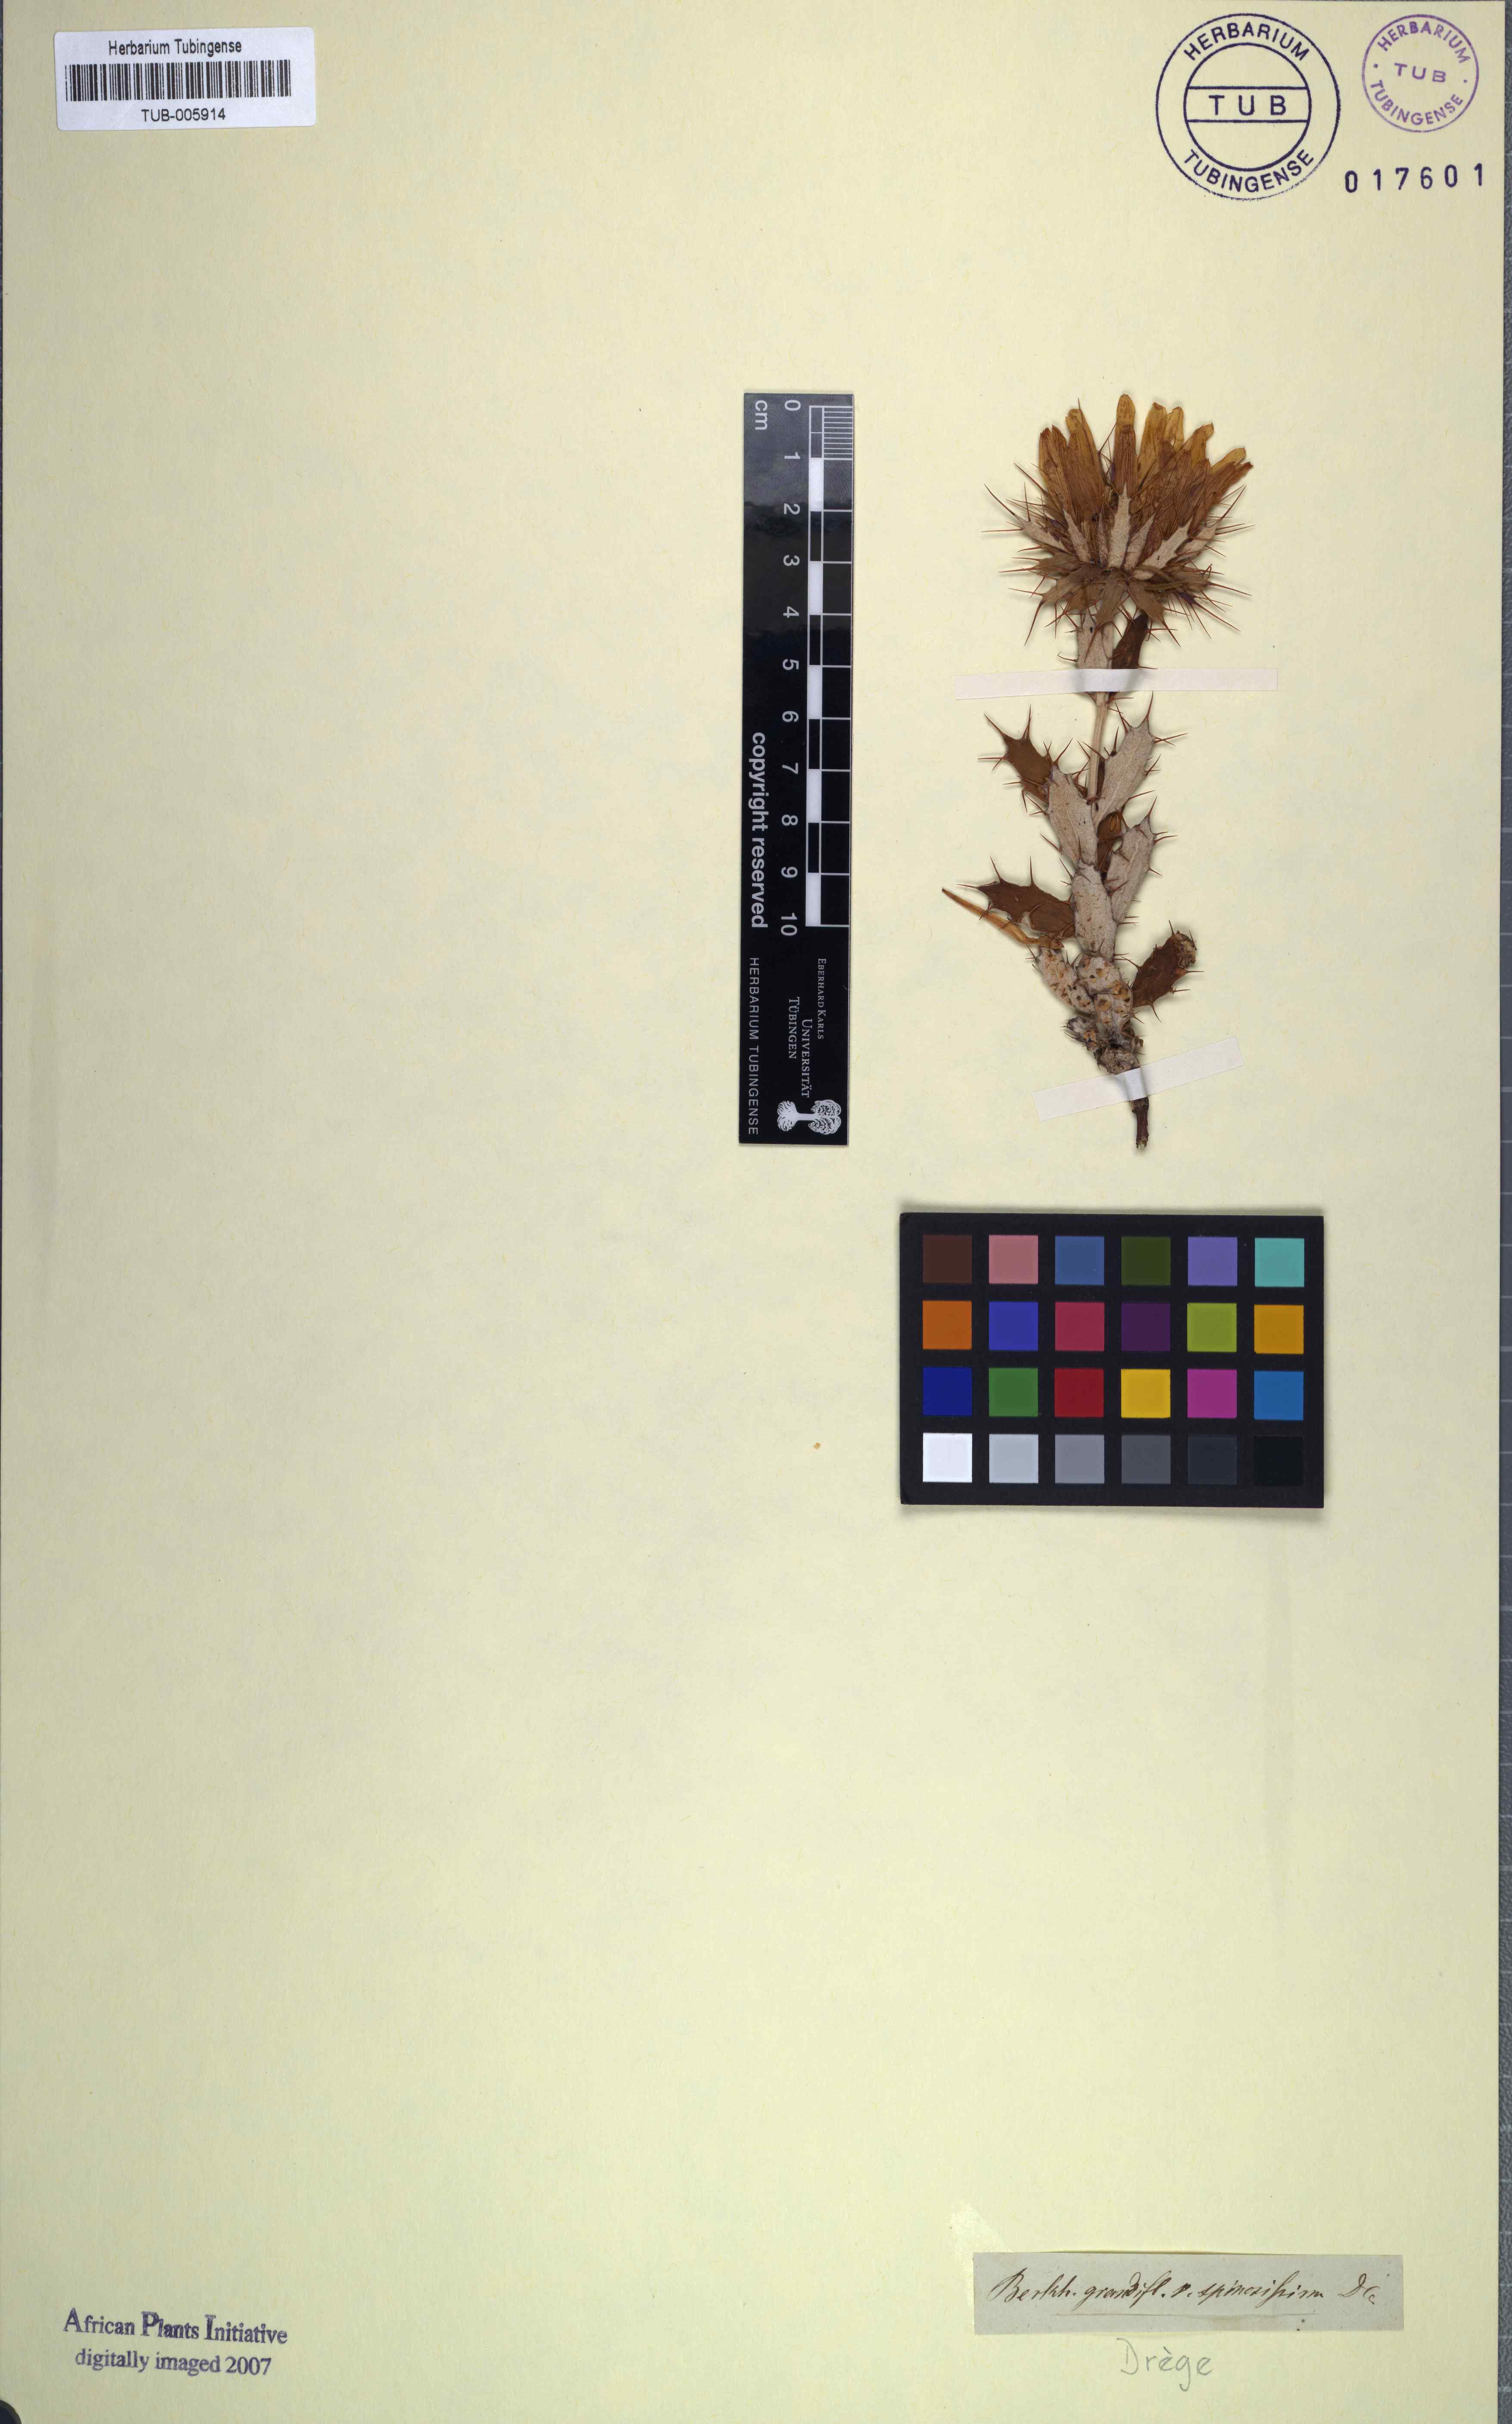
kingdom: Plantae
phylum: Tracheophyta
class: Magnoliopsida
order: Asterales
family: Asteraceae
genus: Berkheya
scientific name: Berkheya barbata
